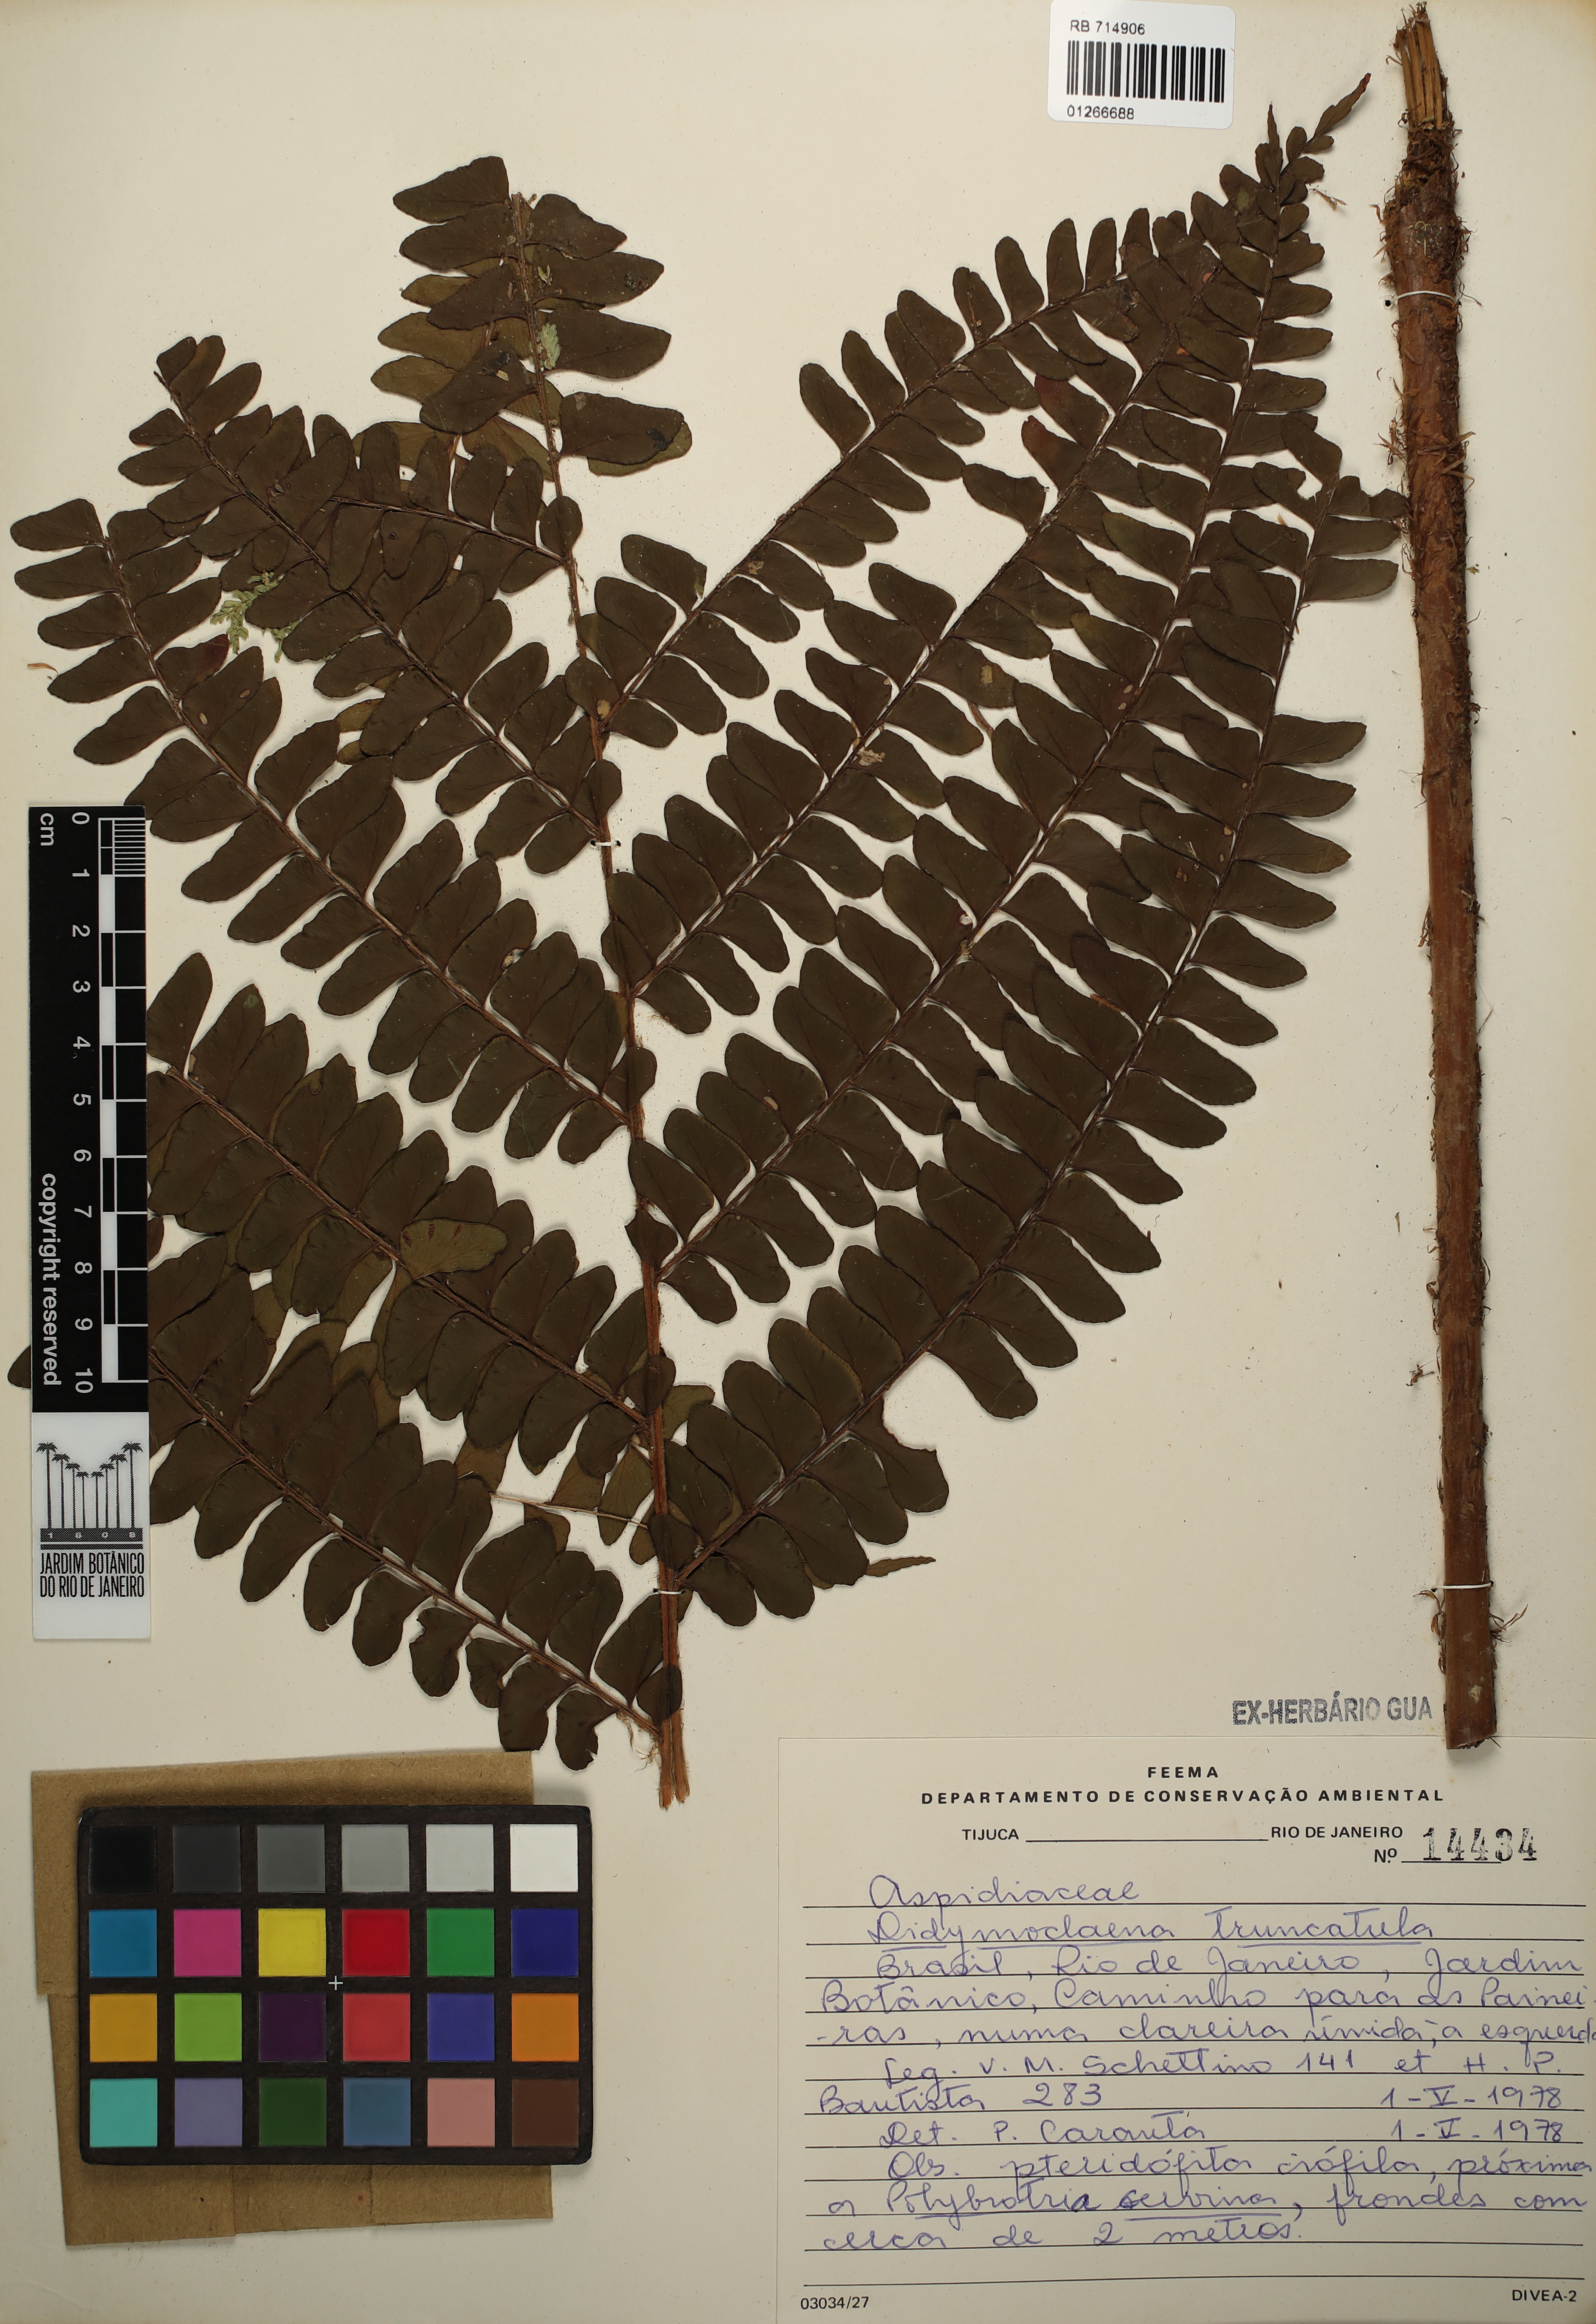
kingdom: Plantae
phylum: Tracheophyta
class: Polypodiopsida
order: Polypodiales
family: Didymochlaenaceae
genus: Didymochlaena
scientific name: Didymochlaena truncatula
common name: Mahogany fern
